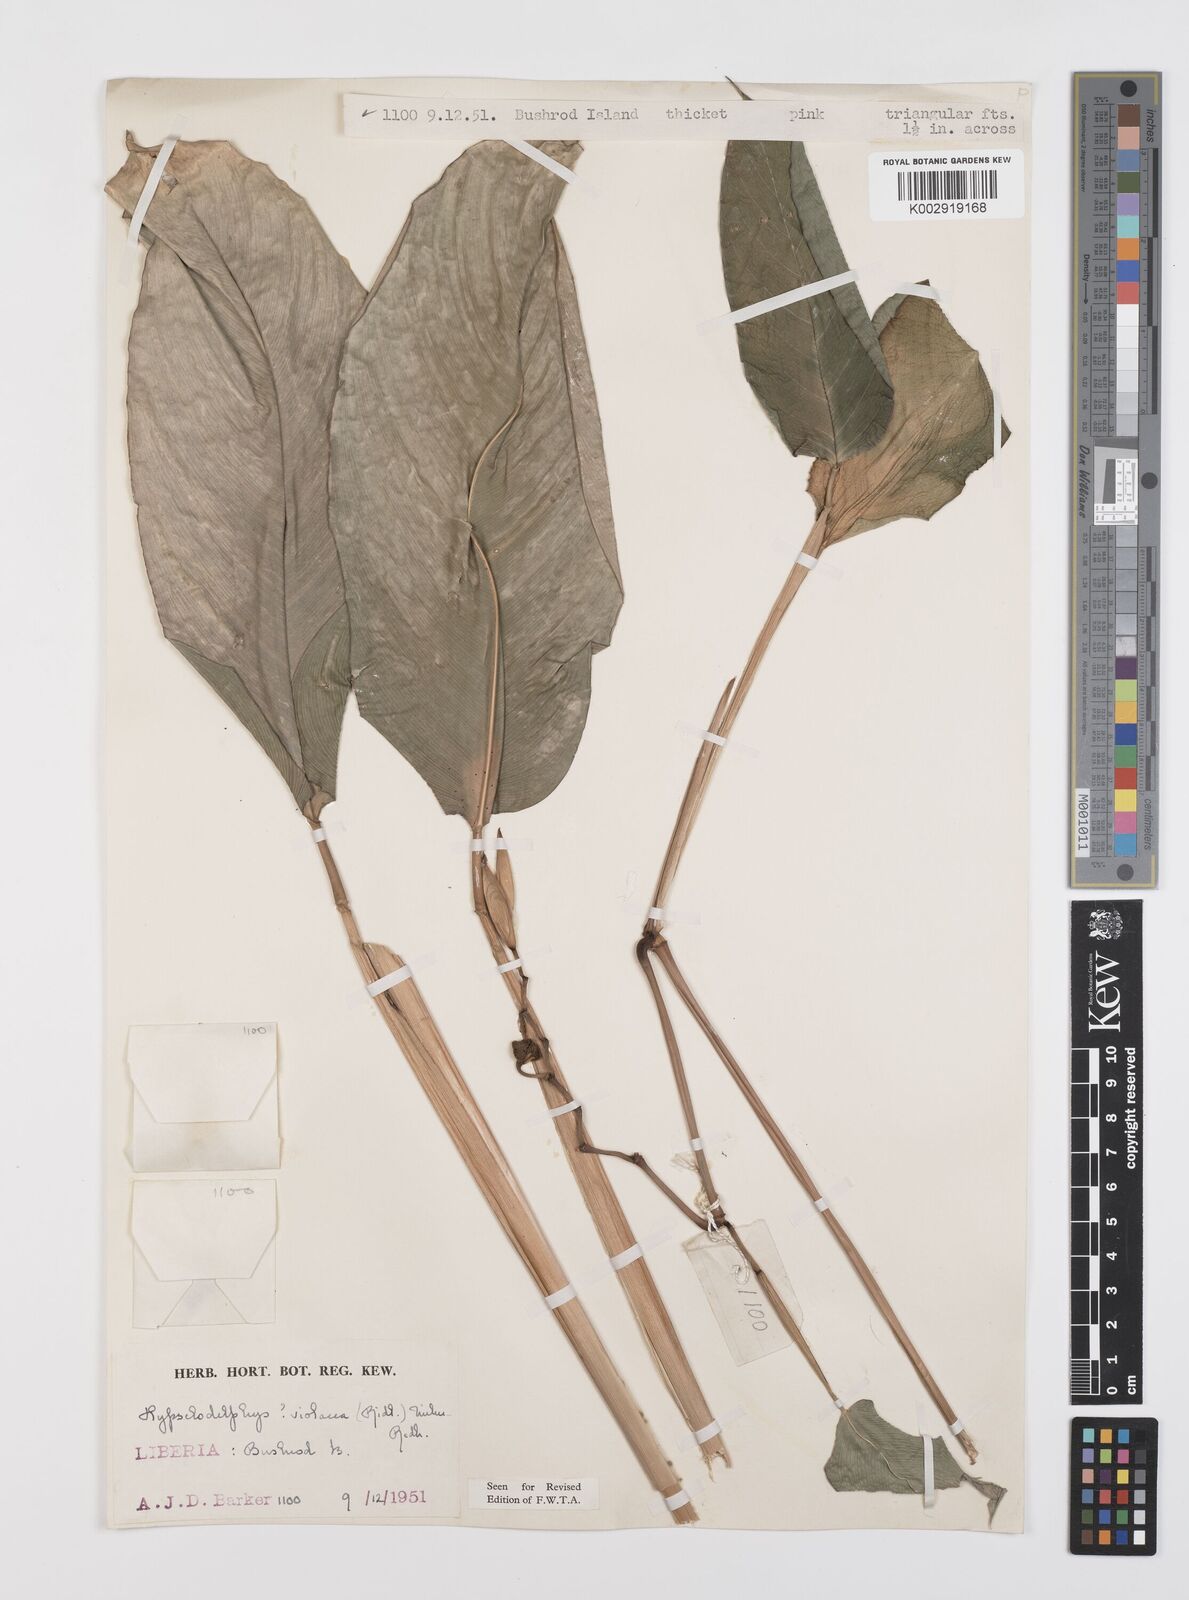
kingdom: Plantae
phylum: Tracheophyta
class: Liliopsida
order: Zingiberales
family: Marantaceae
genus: Hypselodelphys
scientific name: Hypselodelphys violacea
